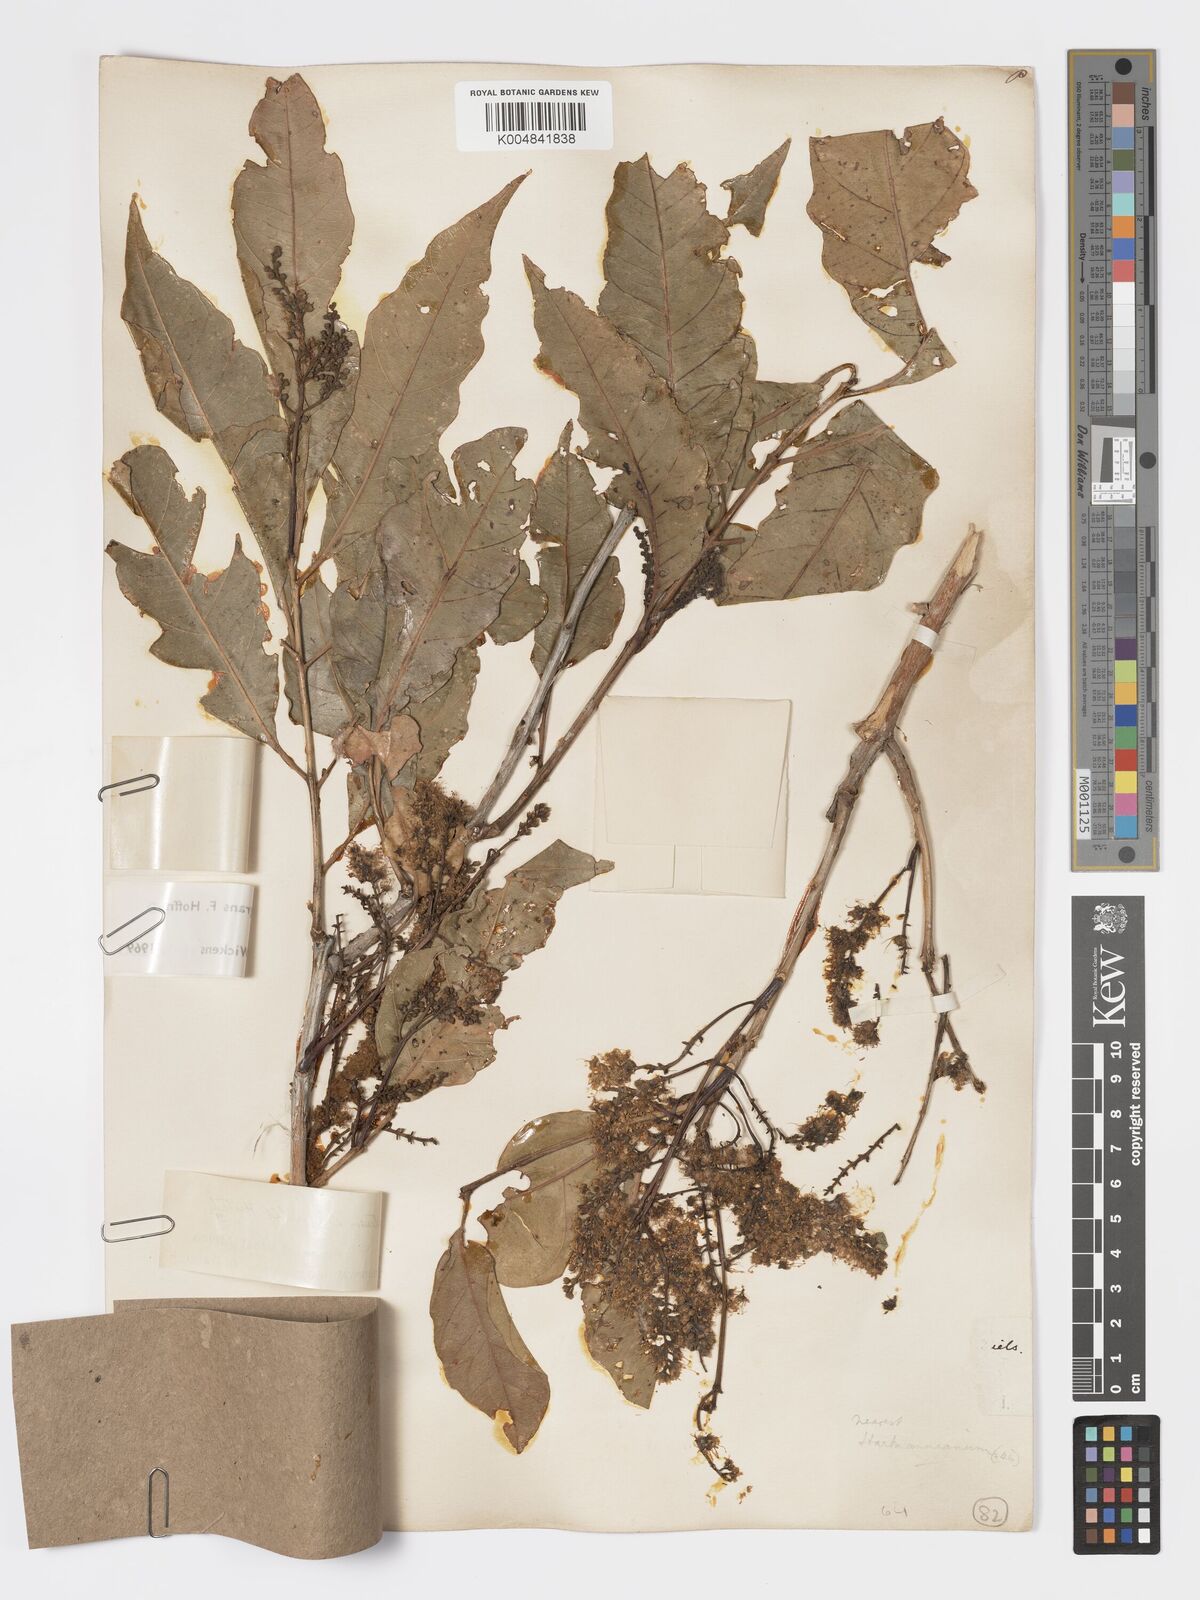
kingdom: Plantae
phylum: Tracheophyta
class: Magnoliopsida
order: Myrtales
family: Combretaceae
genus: Combretum
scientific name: Combretum adenogonium
